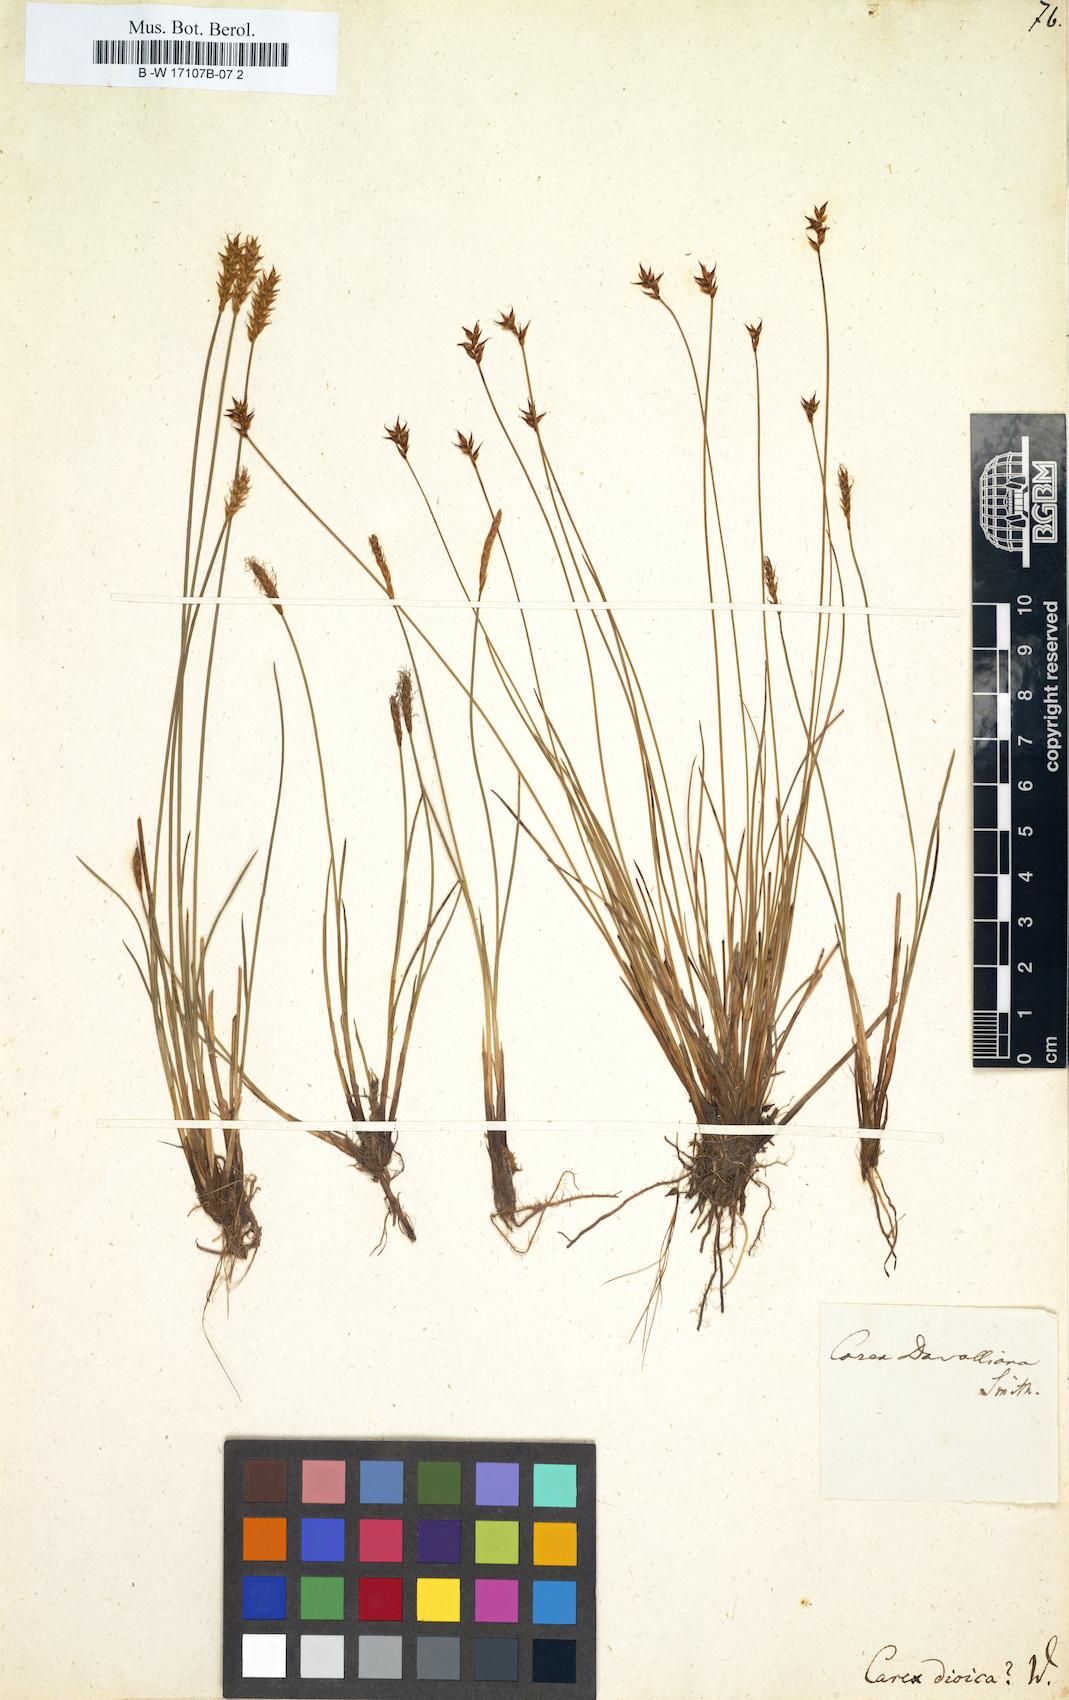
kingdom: Plantae
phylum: Tracheophyta
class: Liliopsida
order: Poales
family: Cyperaceae
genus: Carex
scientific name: Carex dioica
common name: Dioecious sedge
